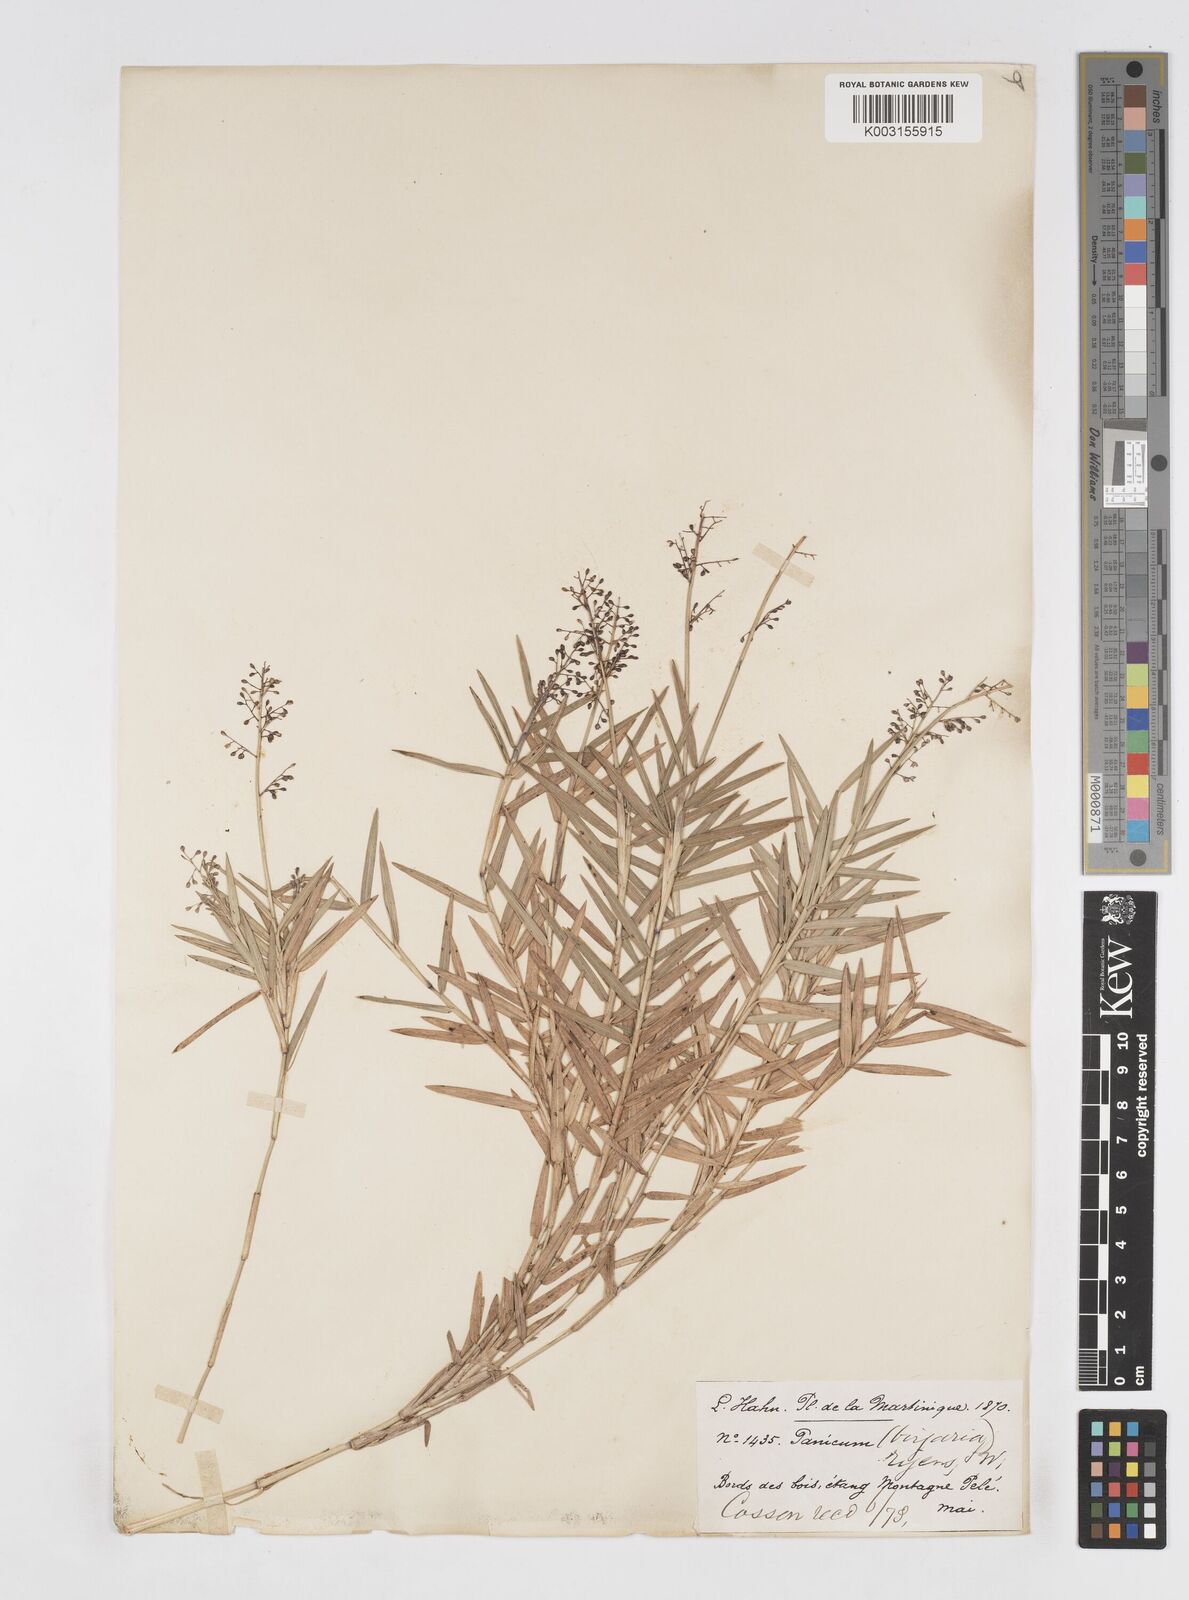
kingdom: Plantae
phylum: Tracheophyta
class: Liliopsida
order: Poales
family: Poaceae
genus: Isachne
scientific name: Isachne rigidifolia
